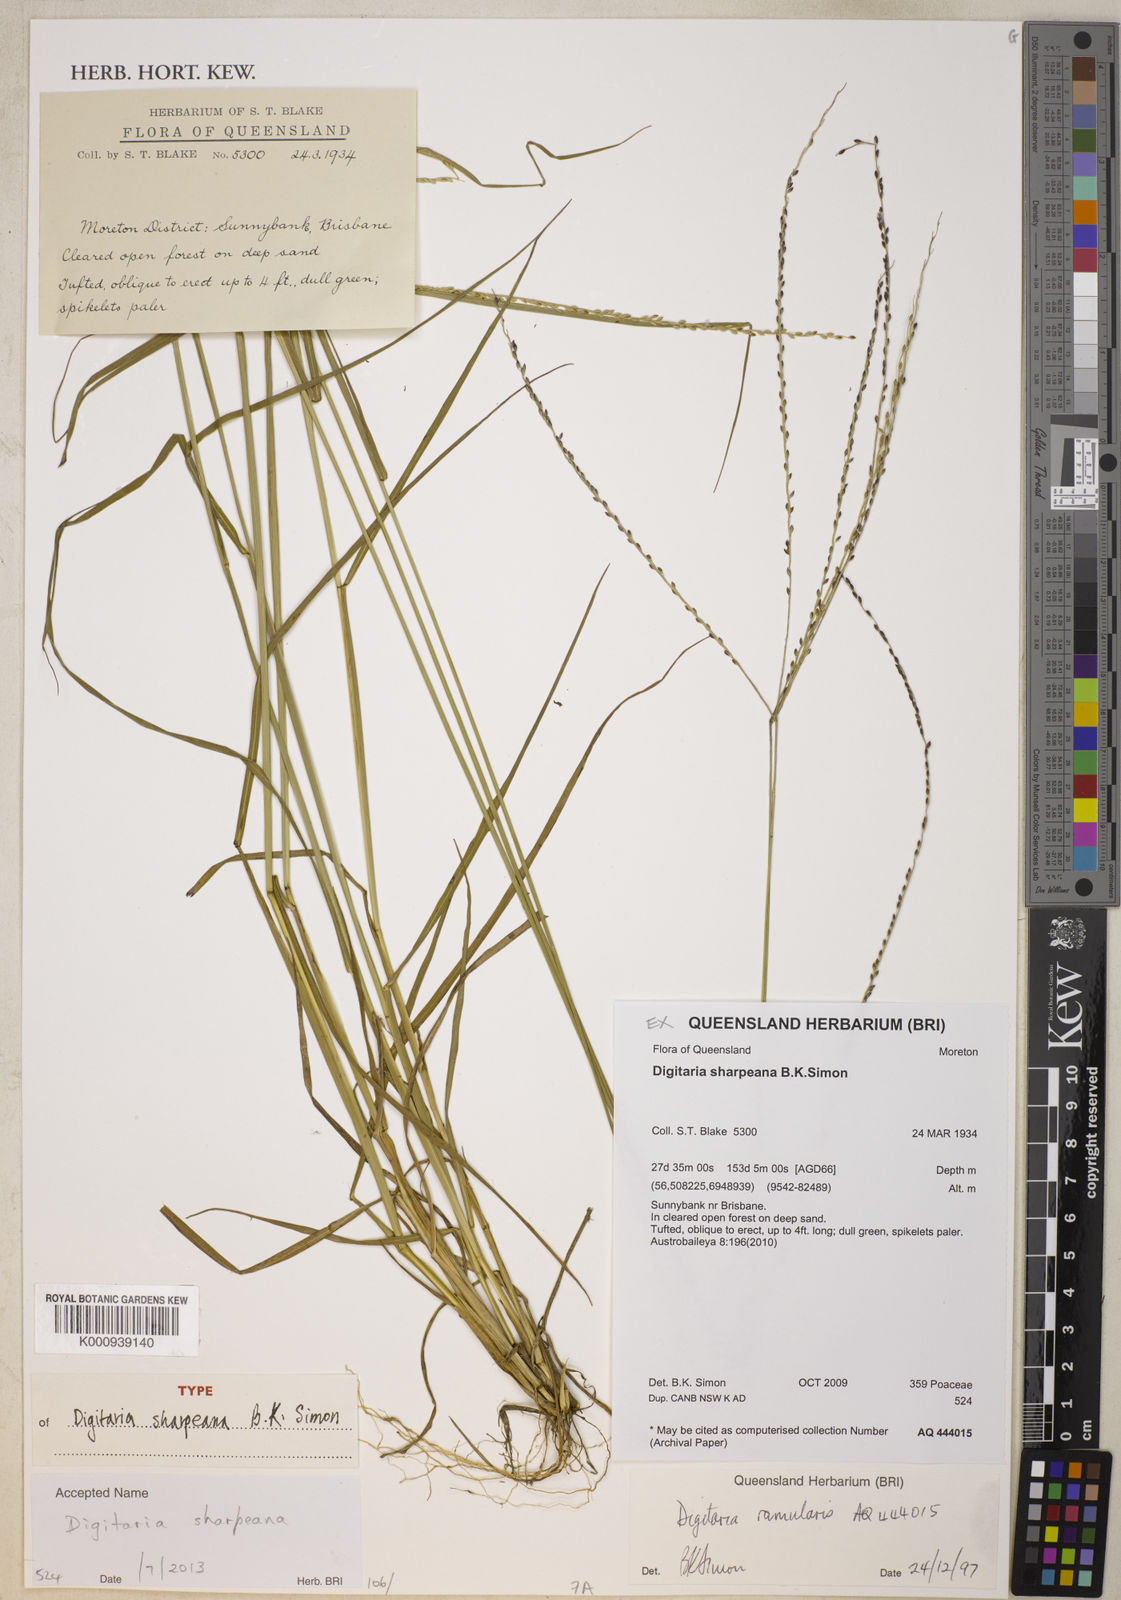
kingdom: Plantae
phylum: Tracheophyta
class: Liliopsida
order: Poales
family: Poaceae
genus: Digitaria
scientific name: Digitaria sharpeana
